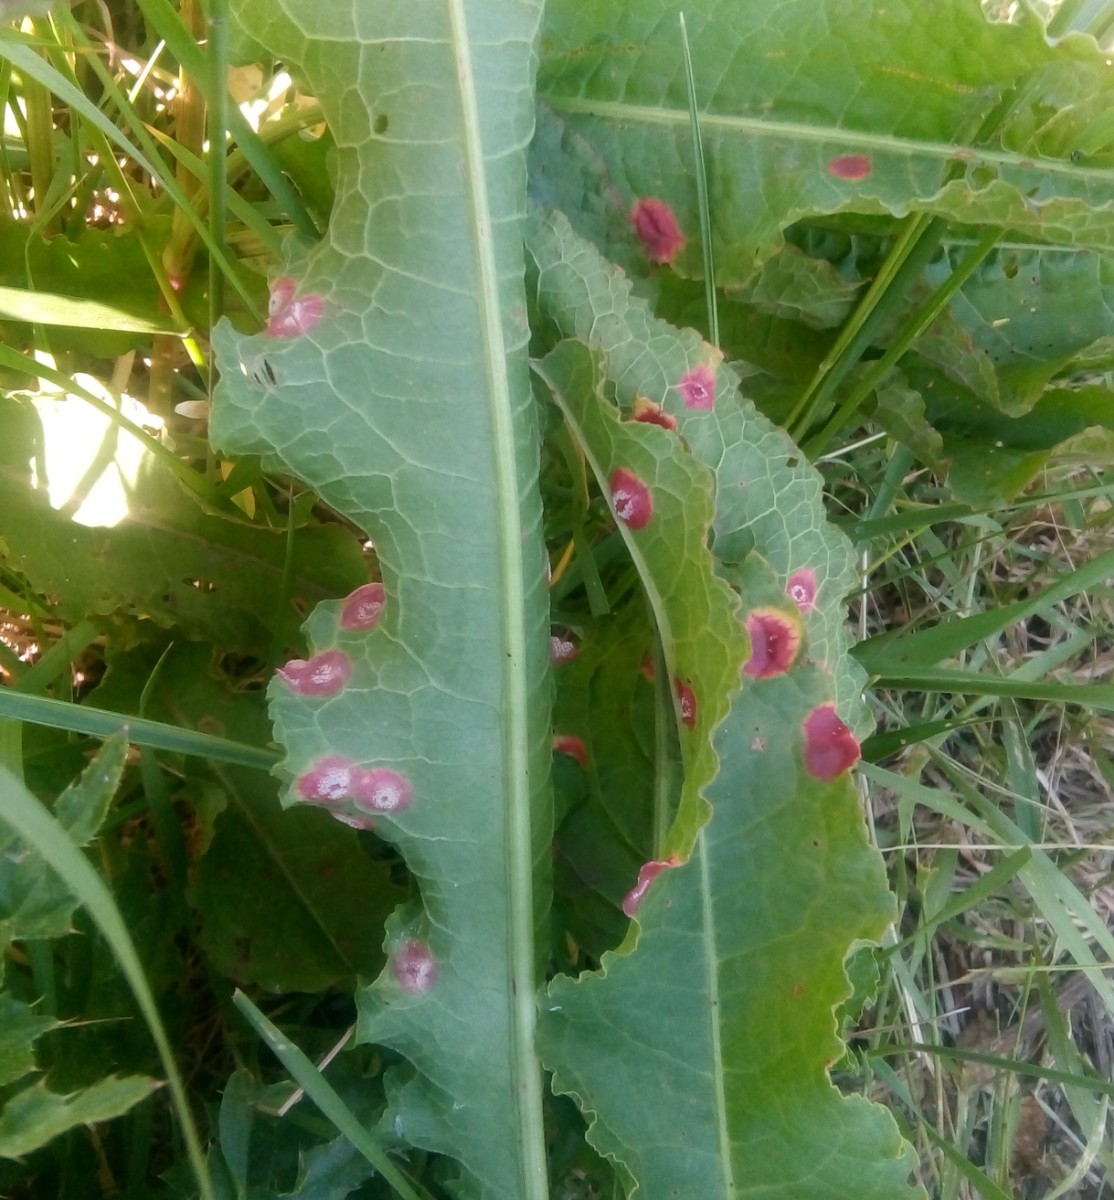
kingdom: Fungi
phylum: Basidiomycota
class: Pucciniomycetes
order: Pucciniales
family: Pucciniaceae
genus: Puccinia
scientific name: Puccinia phragmitis
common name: tagrør-tvecellerust
